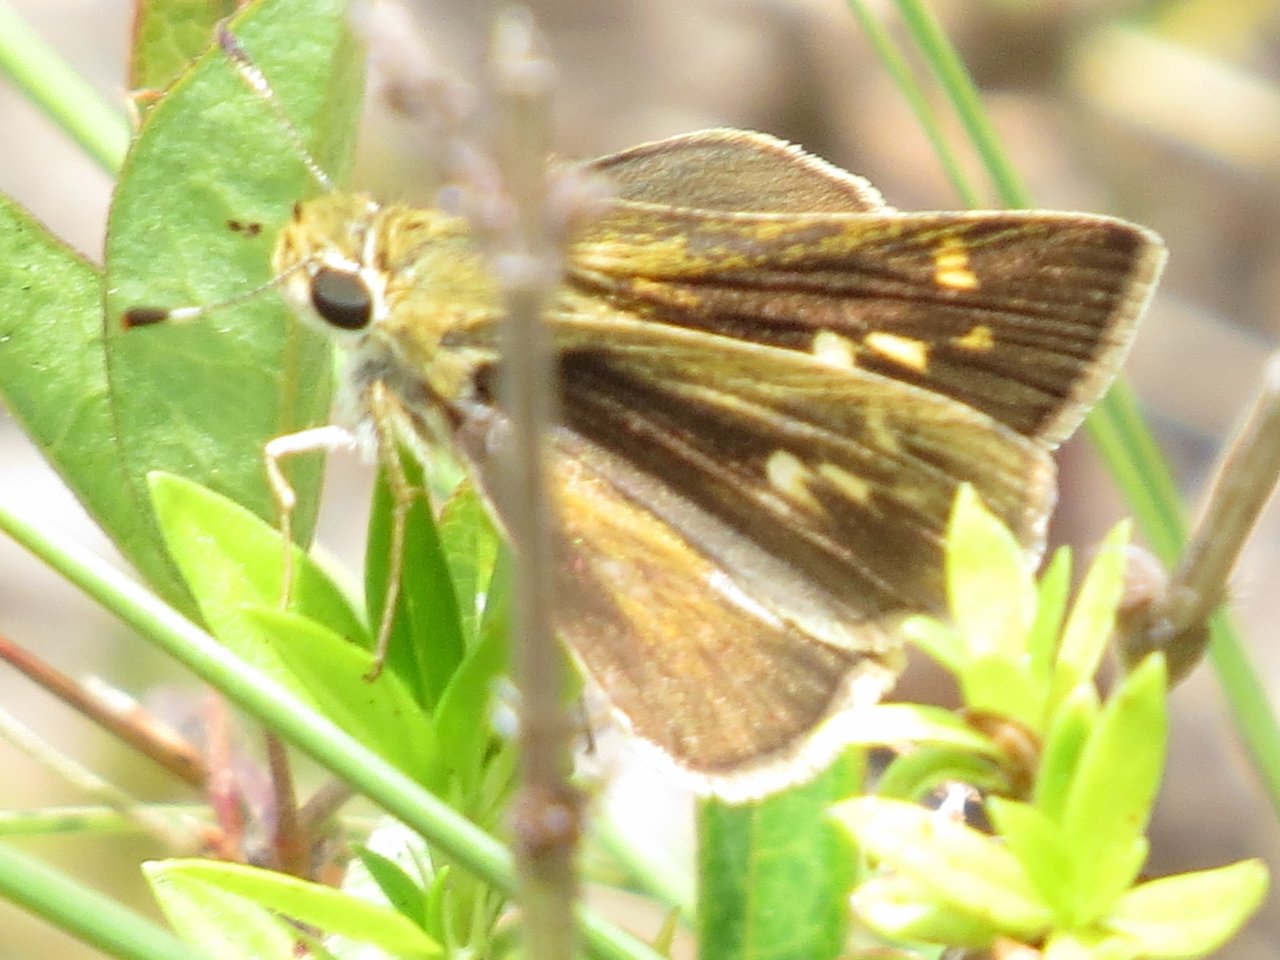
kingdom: Animalia
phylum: Arthropoda
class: Insecta
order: Lepidoptera
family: Hesperiidae
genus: Polites
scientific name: Polites vibex
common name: Whirlabout
